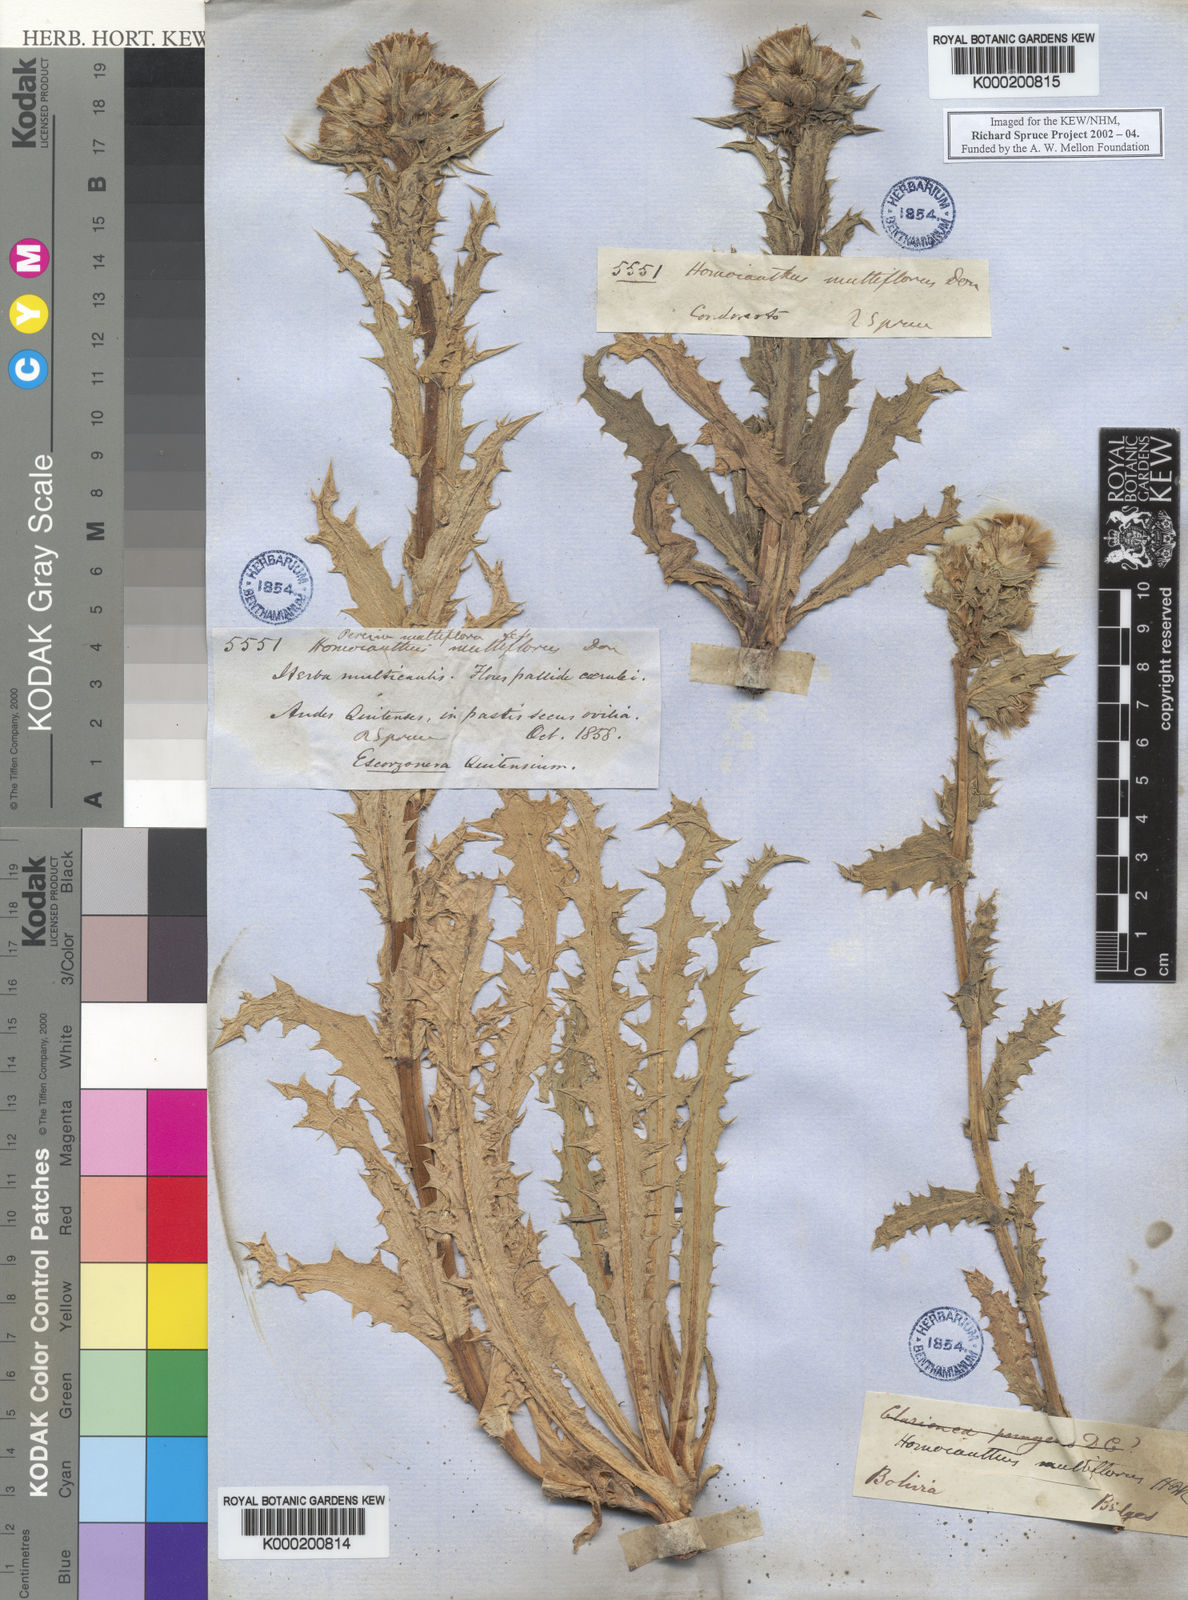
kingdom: Plantae
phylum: Tracheophyta
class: Magnoliopsida
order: Asterales
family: Asteraceae
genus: Perezia
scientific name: Perezia multiflora
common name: Perezia
